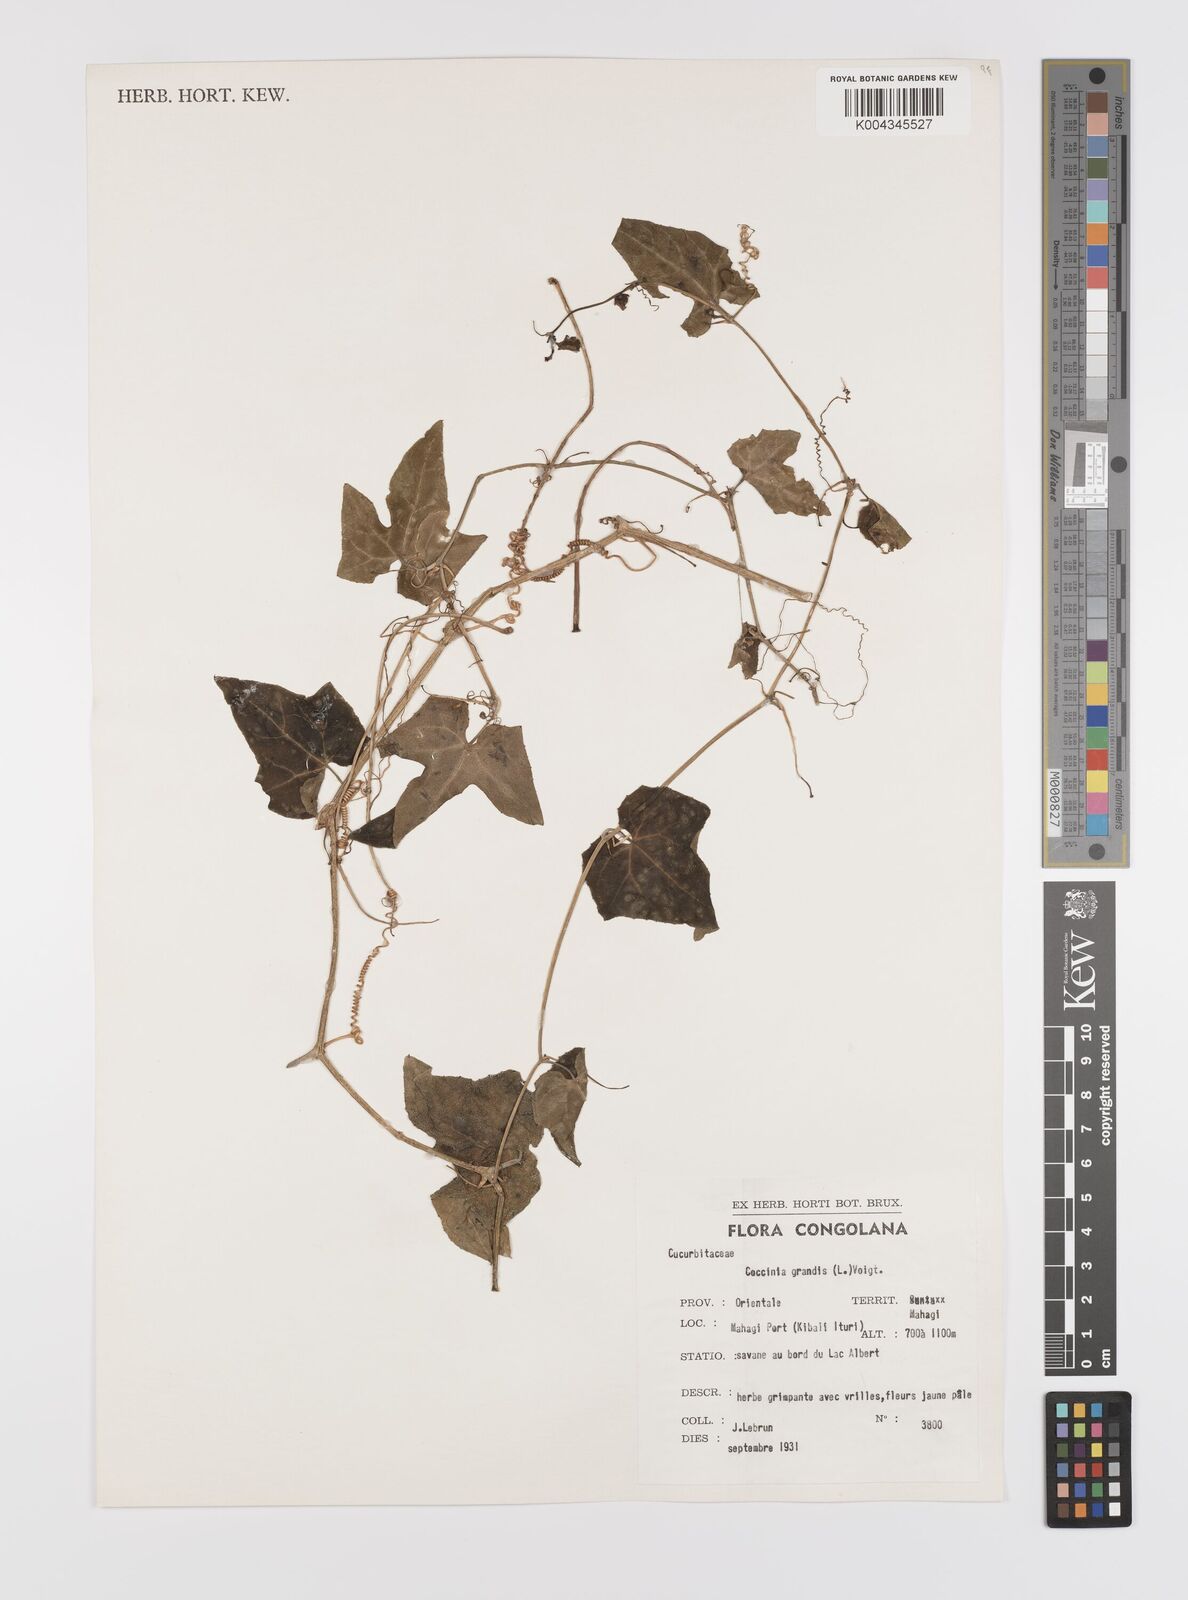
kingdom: Plantae
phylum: Tracheophyta
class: Magnoliopsida
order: Cucurbitales
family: Cucurbitaceae
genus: Coccinia
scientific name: Coccinia grandis
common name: Ivy gourd
